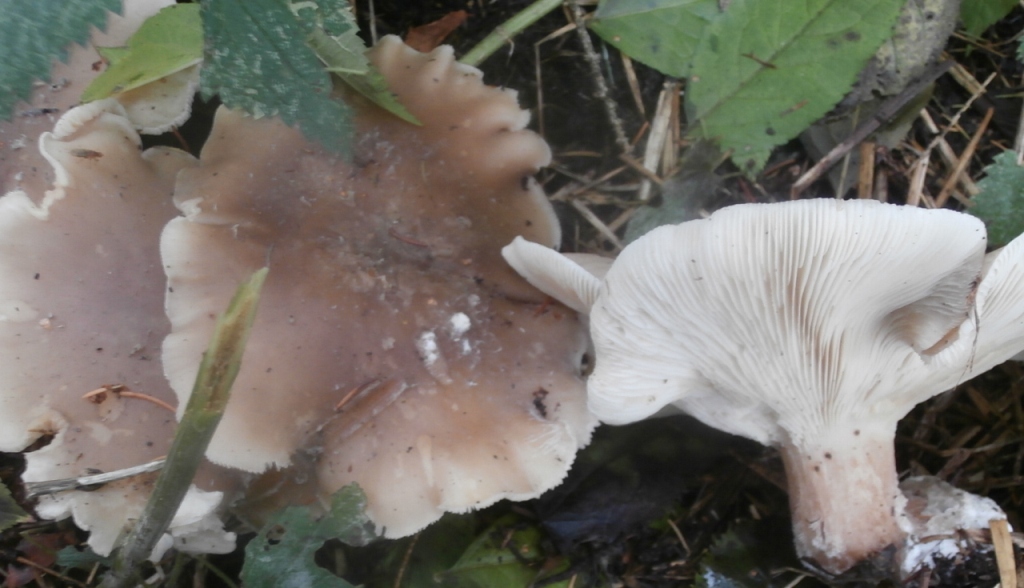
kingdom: Fungi
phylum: Basidiomycota
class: Agaricomycetes
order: Agaricales
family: Tricholomataceae
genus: Clitocybe
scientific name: Clitocybe nebularis
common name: tåge-tragthat
